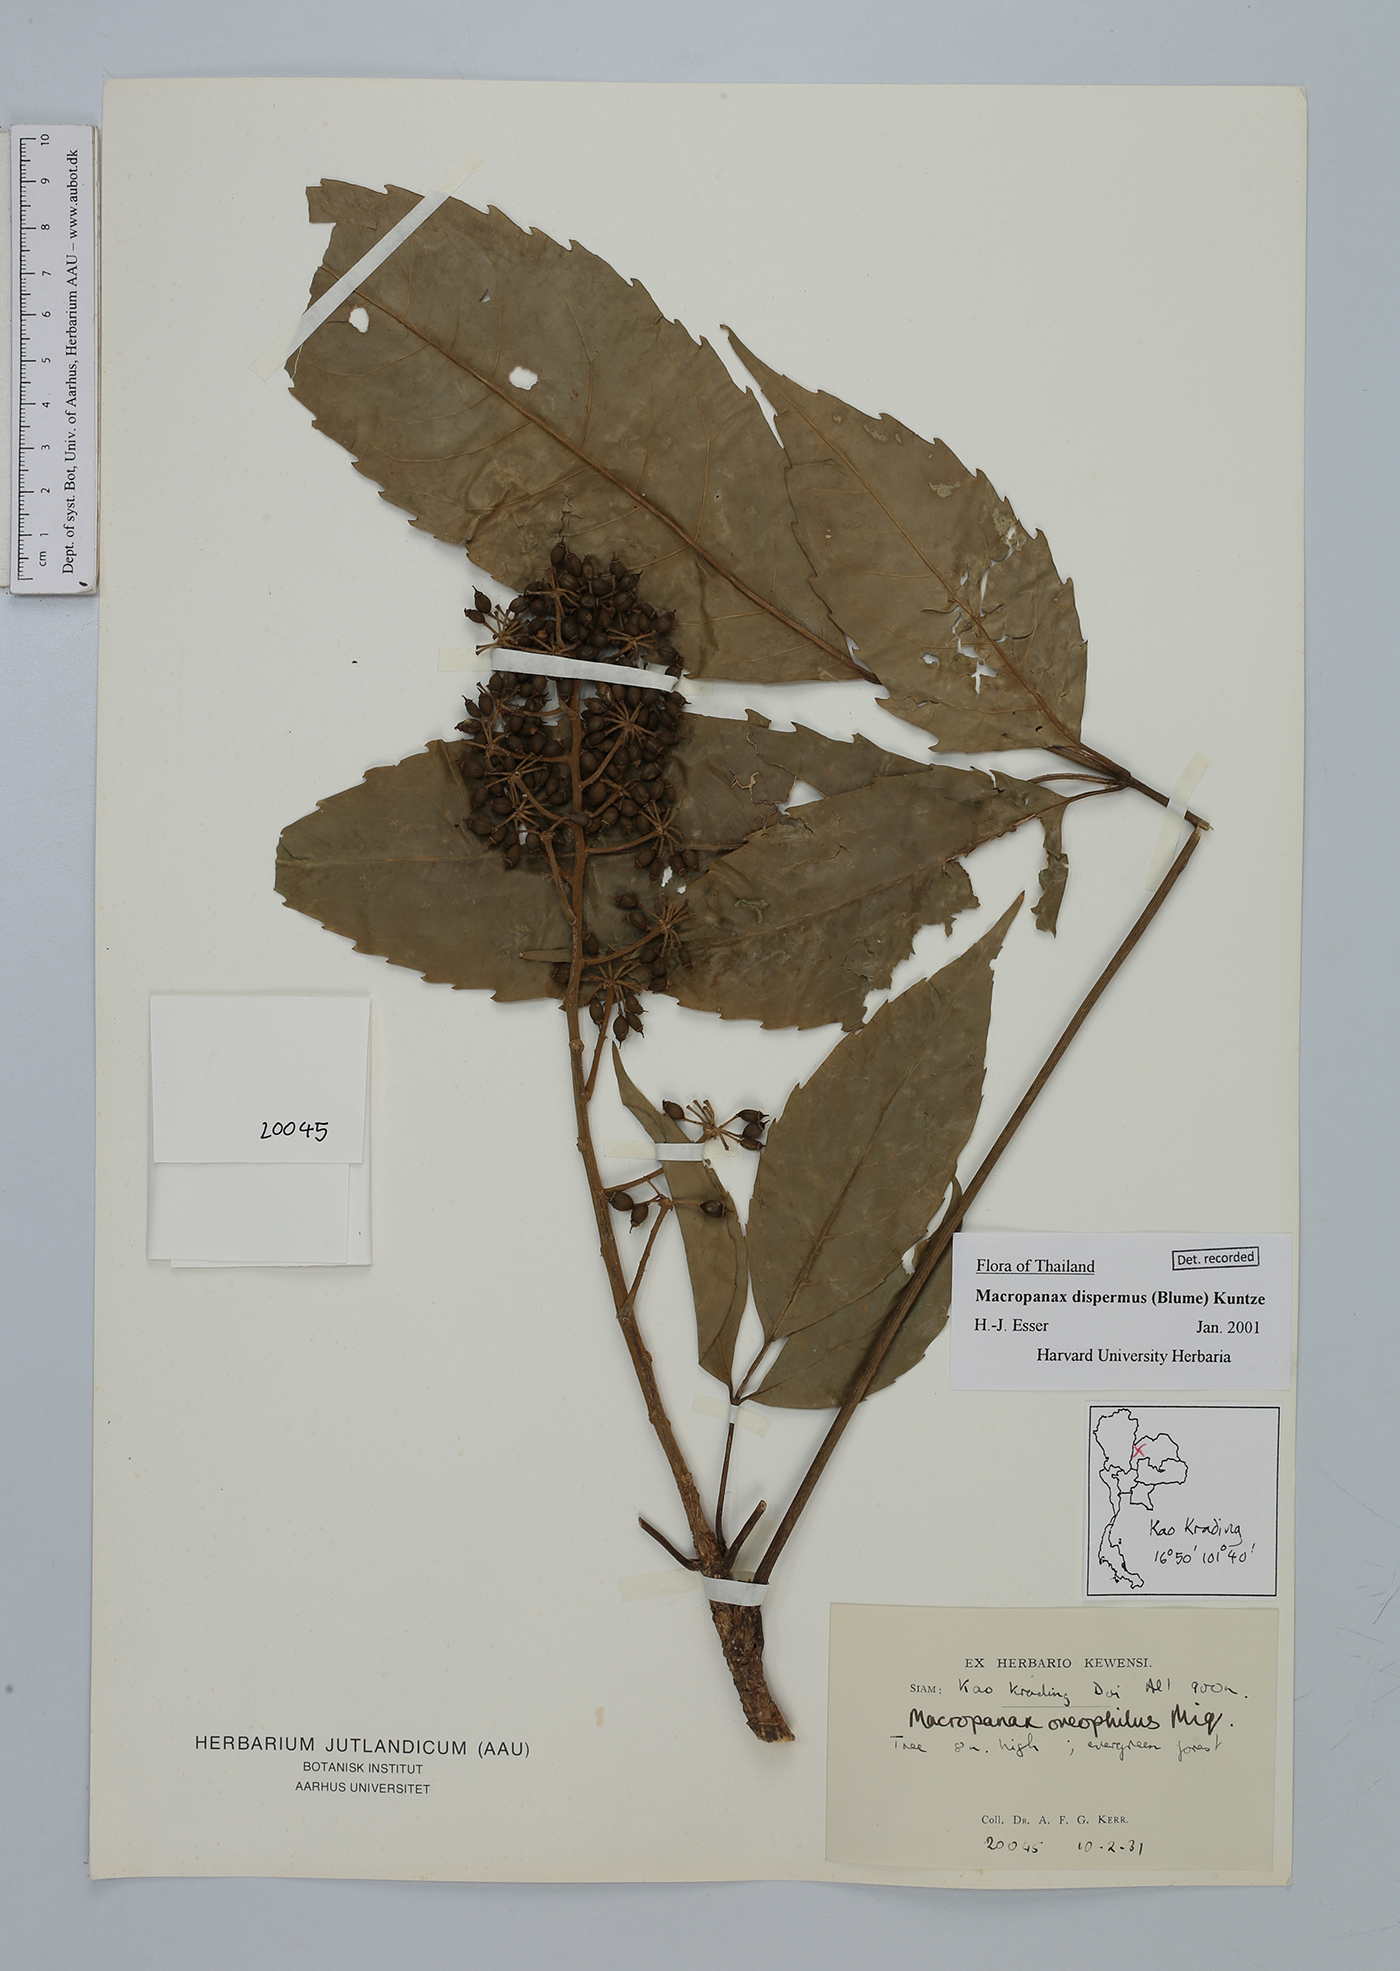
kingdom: Plantae
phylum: Tracheophyta
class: Magnoliopsida
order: Apiales
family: Araliaceae
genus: Macropanax
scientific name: Macropanax dispermus
